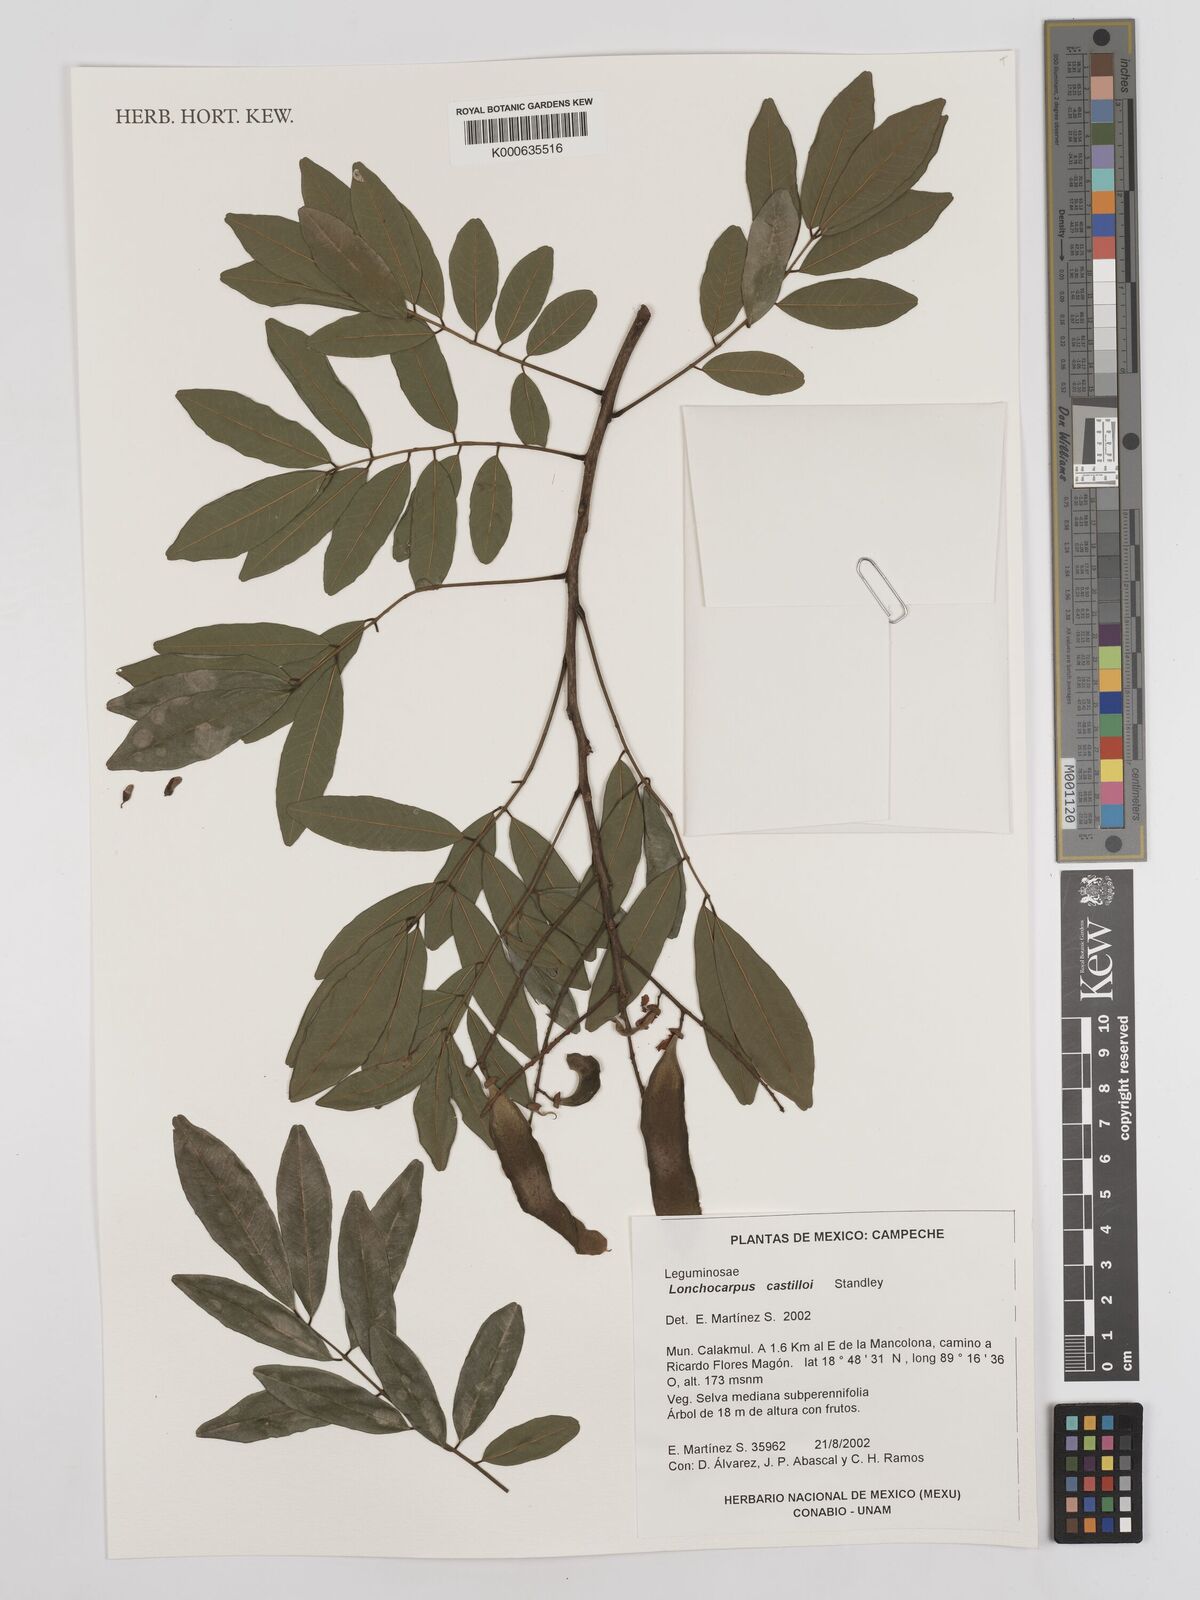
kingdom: Plantae
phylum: Tracheophyta
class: Magnoliopsida
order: Fabales
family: Fabaceae
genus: Lonchocarpus
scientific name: Lonchocarpus castilloi
